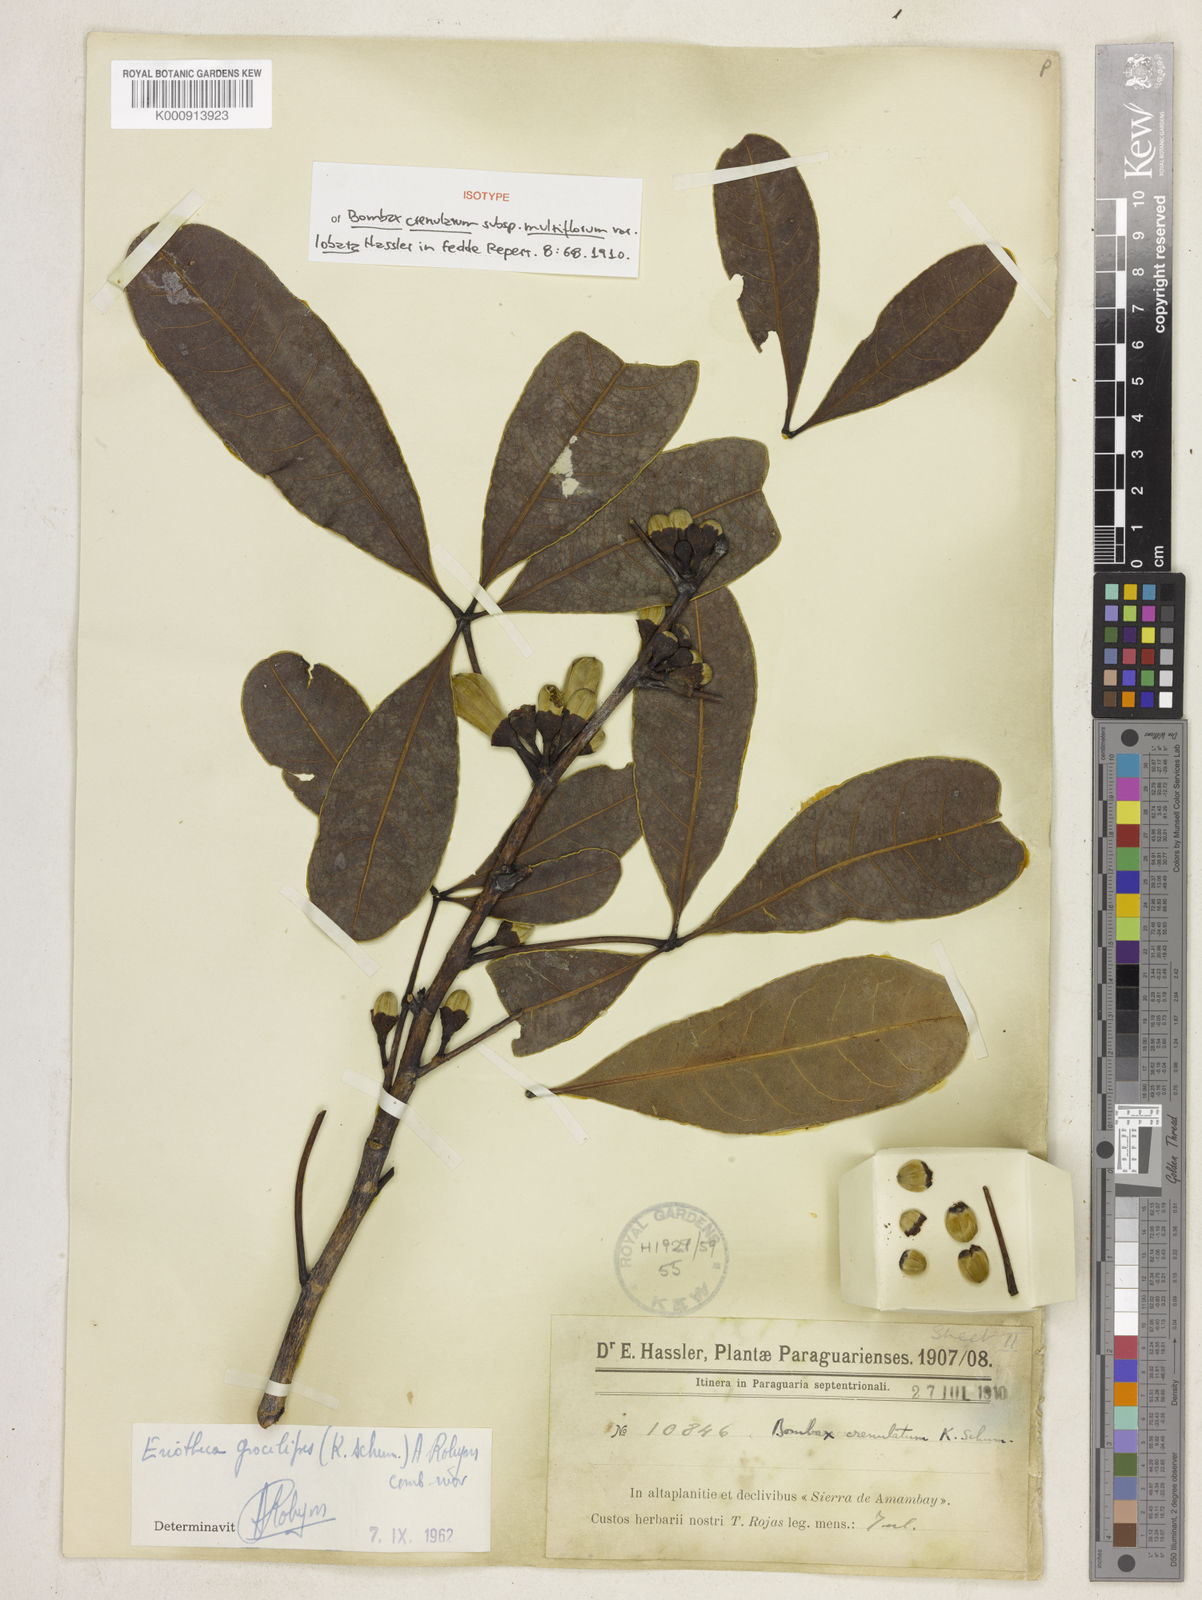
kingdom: Plantae
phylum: Tracheophyta
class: Magnoliopsida
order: Malvales
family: Malvaceae
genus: Eriotheca
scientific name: Eriotheca gracilipes
